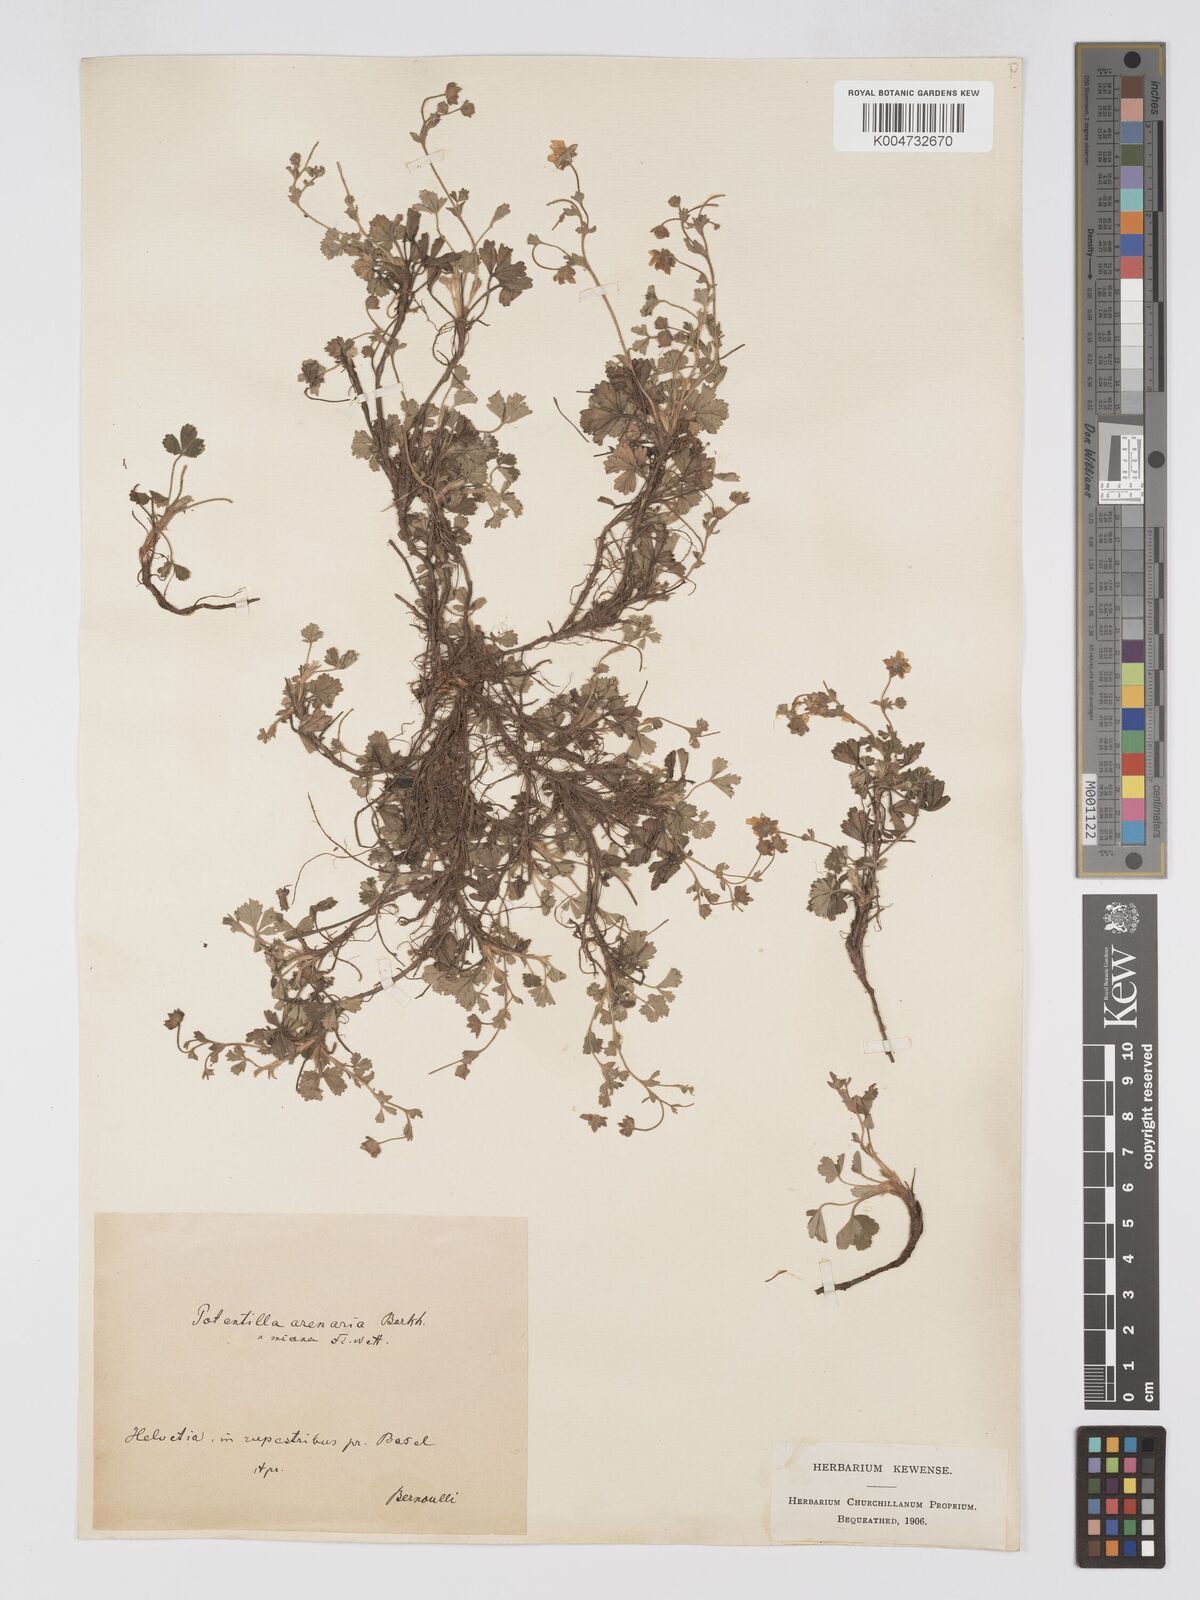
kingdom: Plantae
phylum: Tracheophyta
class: Magnoliopsida
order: Rosales
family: Rosaceae
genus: Potentilla
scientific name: Potentilla cinerea
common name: Ashy cinquefoil
